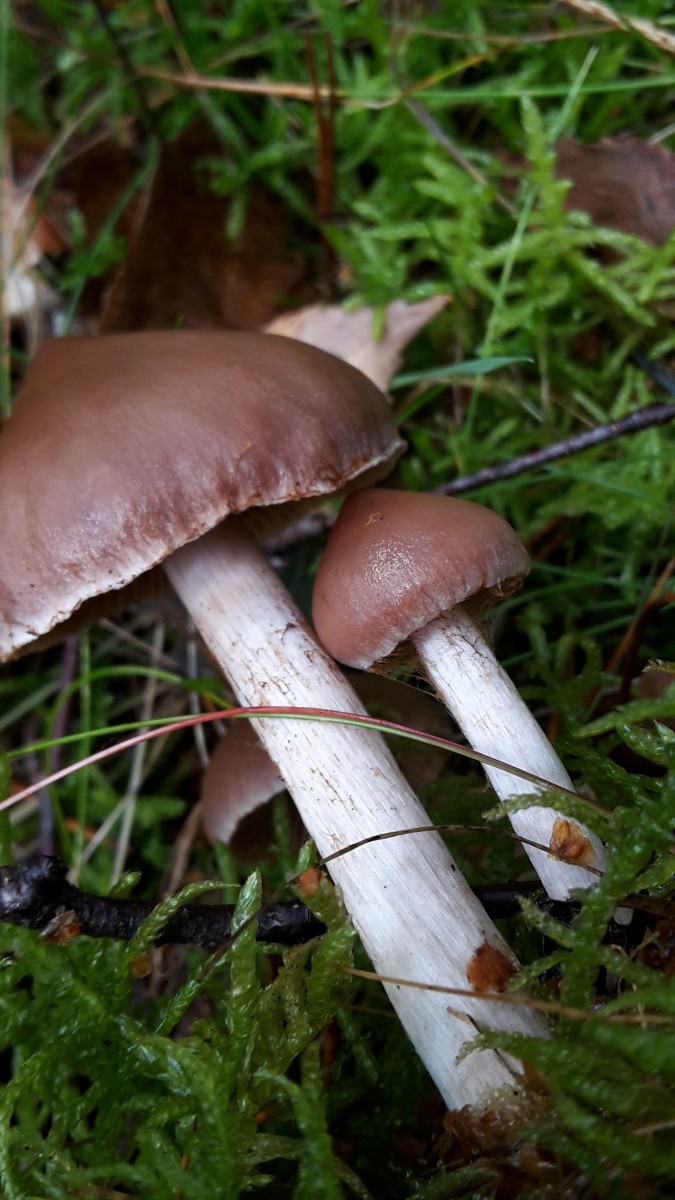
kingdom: Fungi
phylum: Basidiomycota
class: Agaricomycetes
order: Agaricales
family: Cortinariaceae
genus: Cortinarius
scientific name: Cortinarius kauffmanianus
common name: plantage-slørhat
